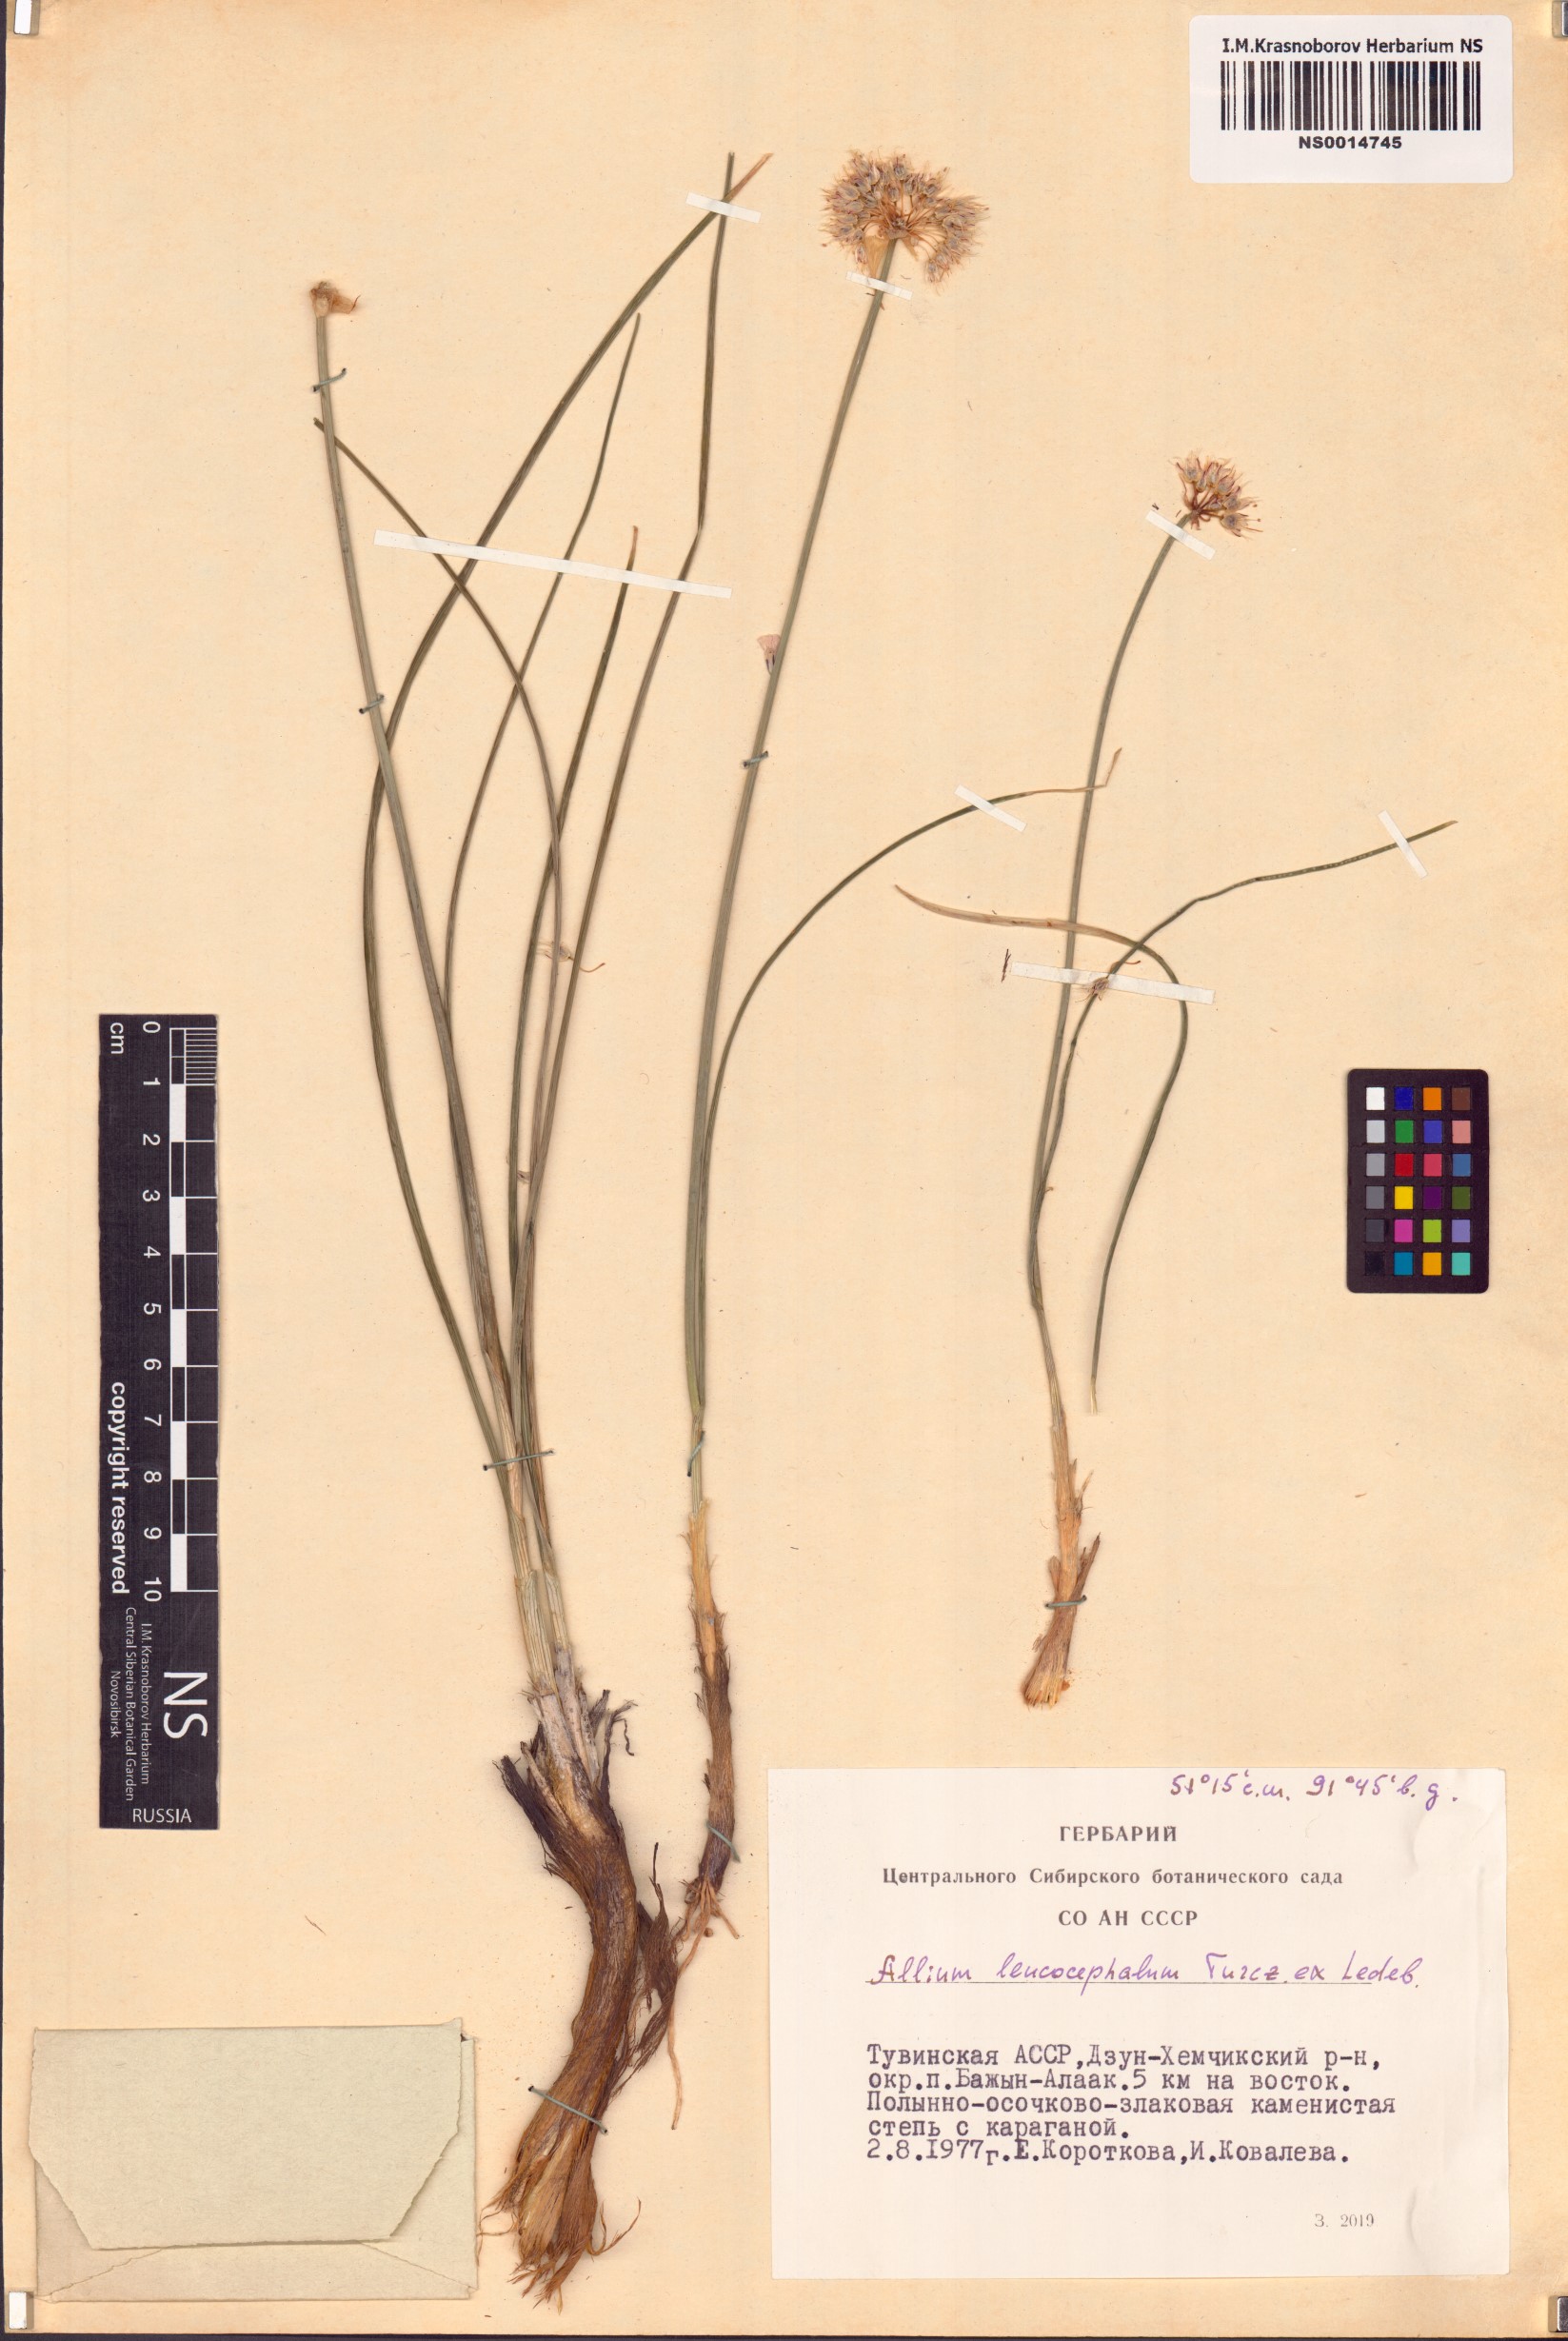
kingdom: Plantae
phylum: Tracheophyta
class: Liliopsida
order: Asparagales
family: Amaryllidaceae
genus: Allium
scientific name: Allium leucocephalum
